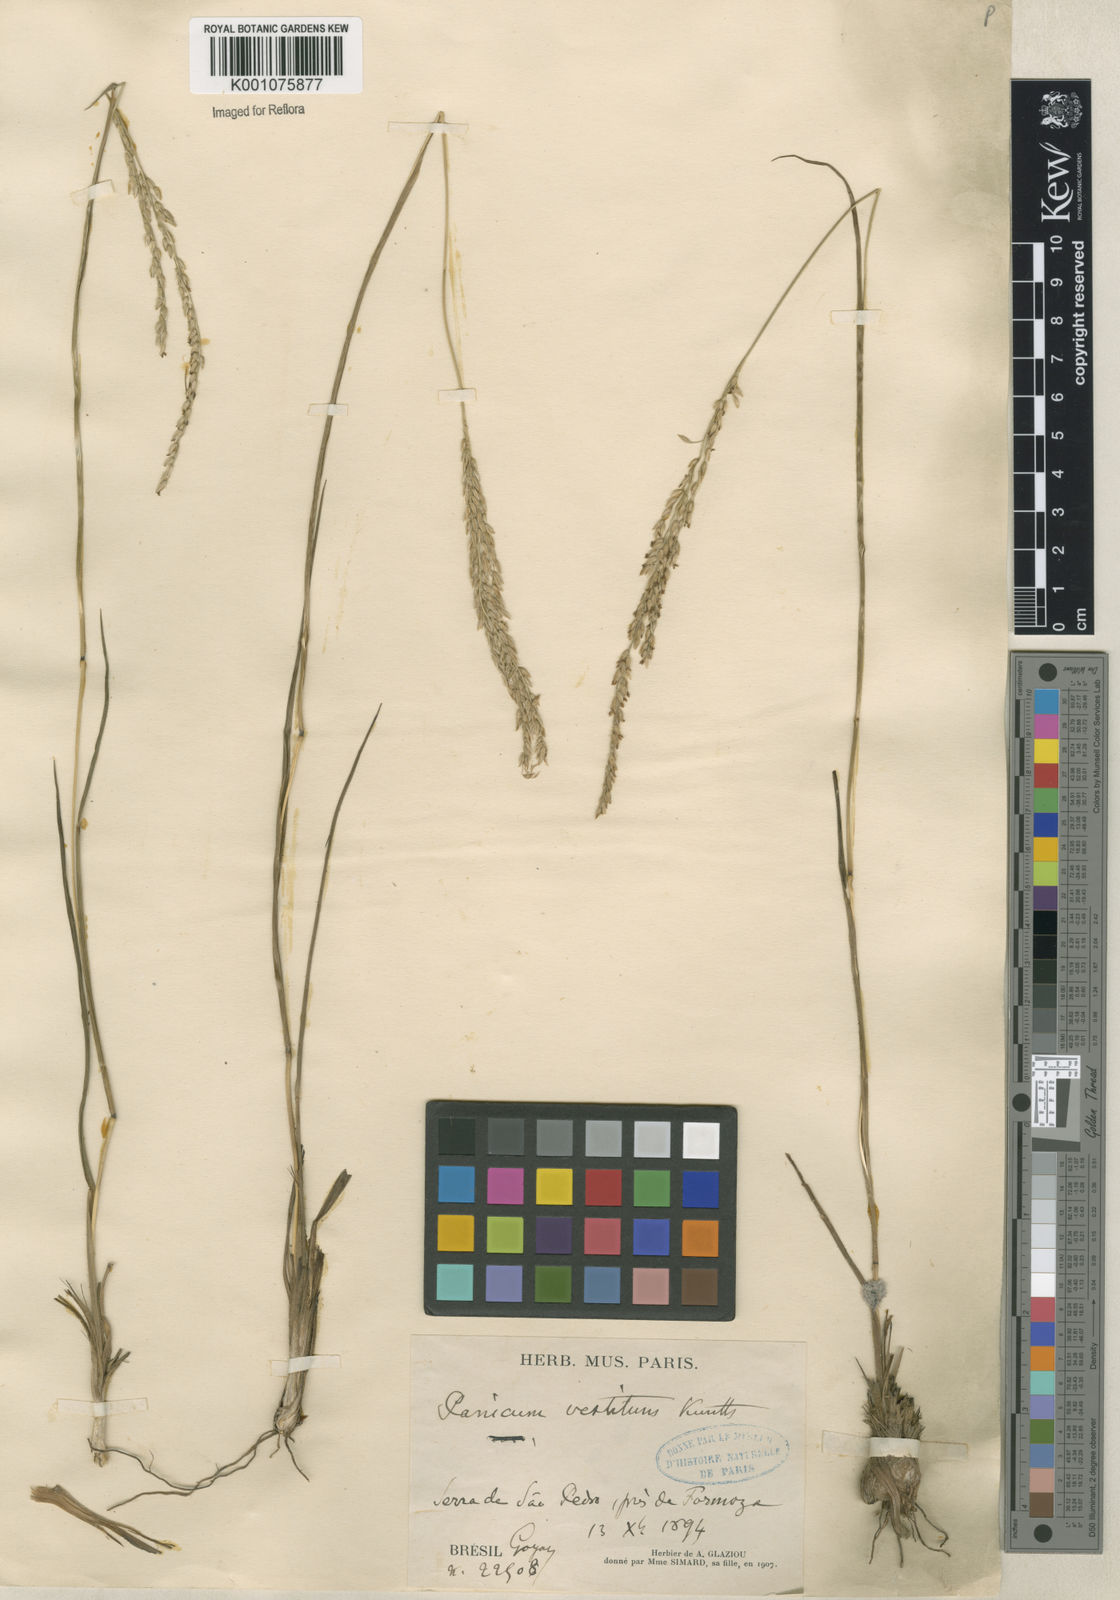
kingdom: Plantae
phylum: Tracheophyta
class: Liliopsida
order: Poales
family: Poaceae
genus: Digitaria
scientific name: Digitaria neesiana
